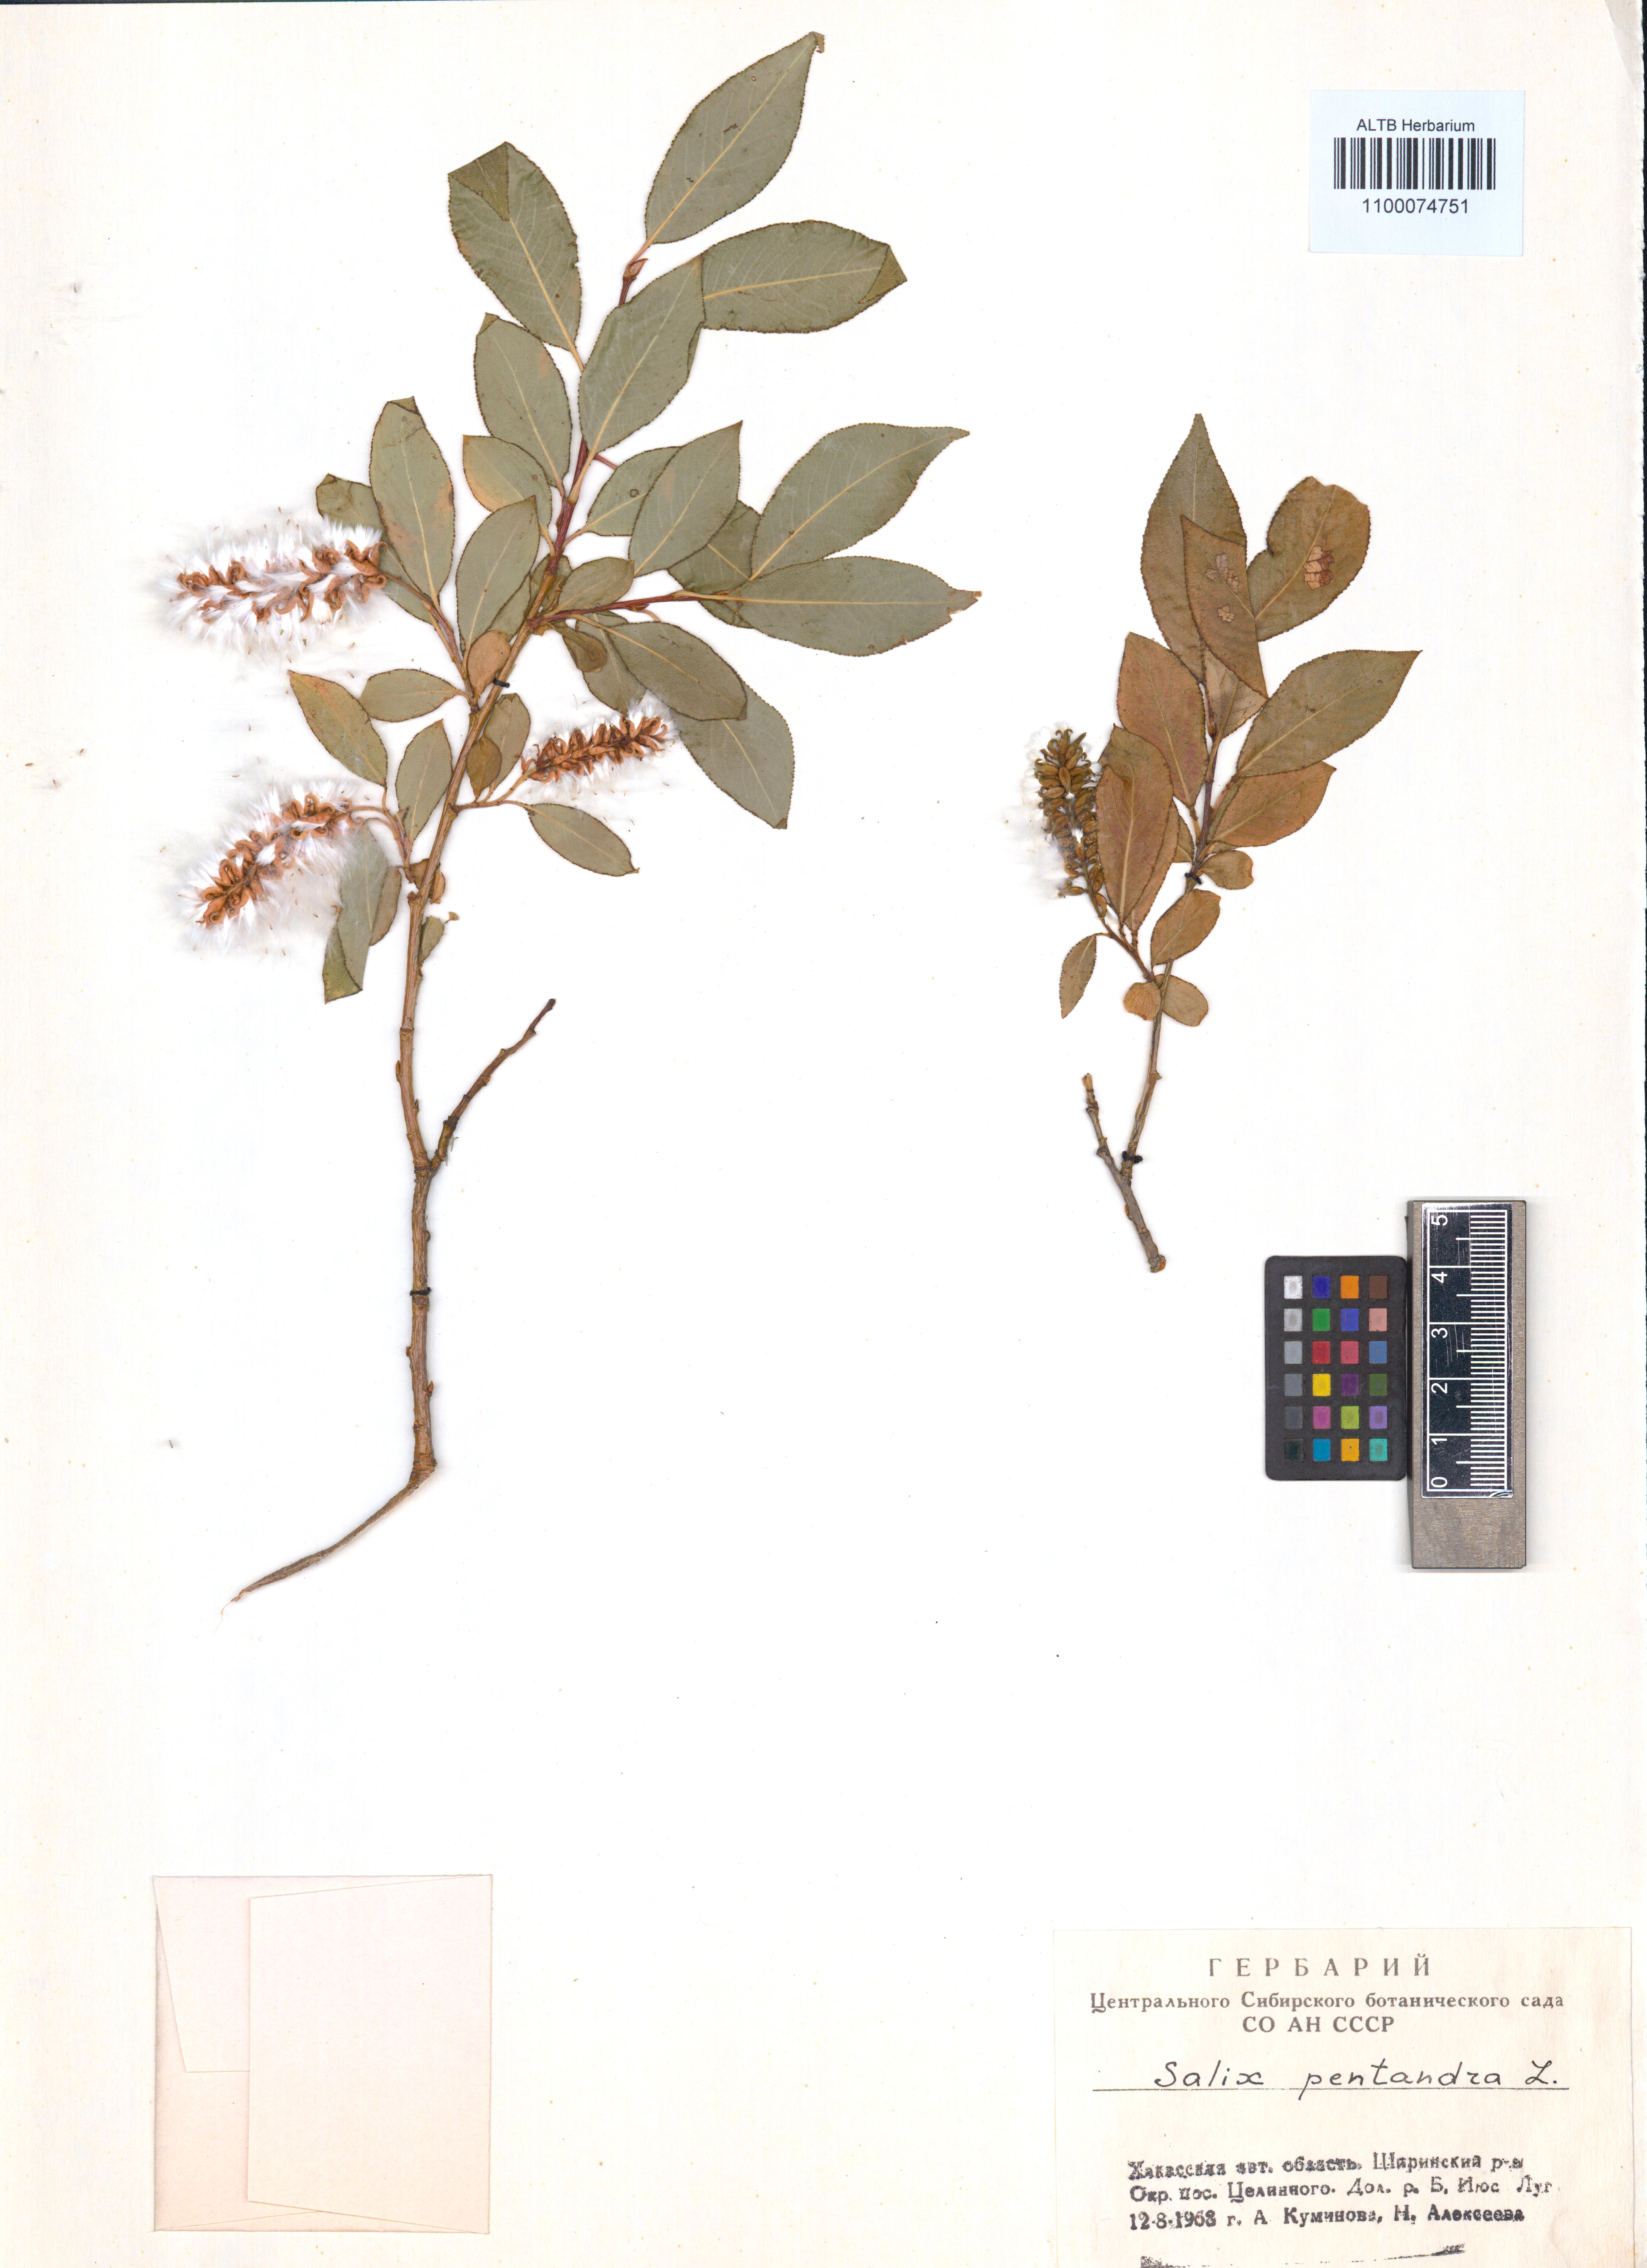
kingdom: Plantae
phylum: Tracheophyta
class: Magnoliopsida
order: Malpighiales
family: Salicaceae
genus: Salix
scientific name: Salix pentandra
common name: Bay willow
